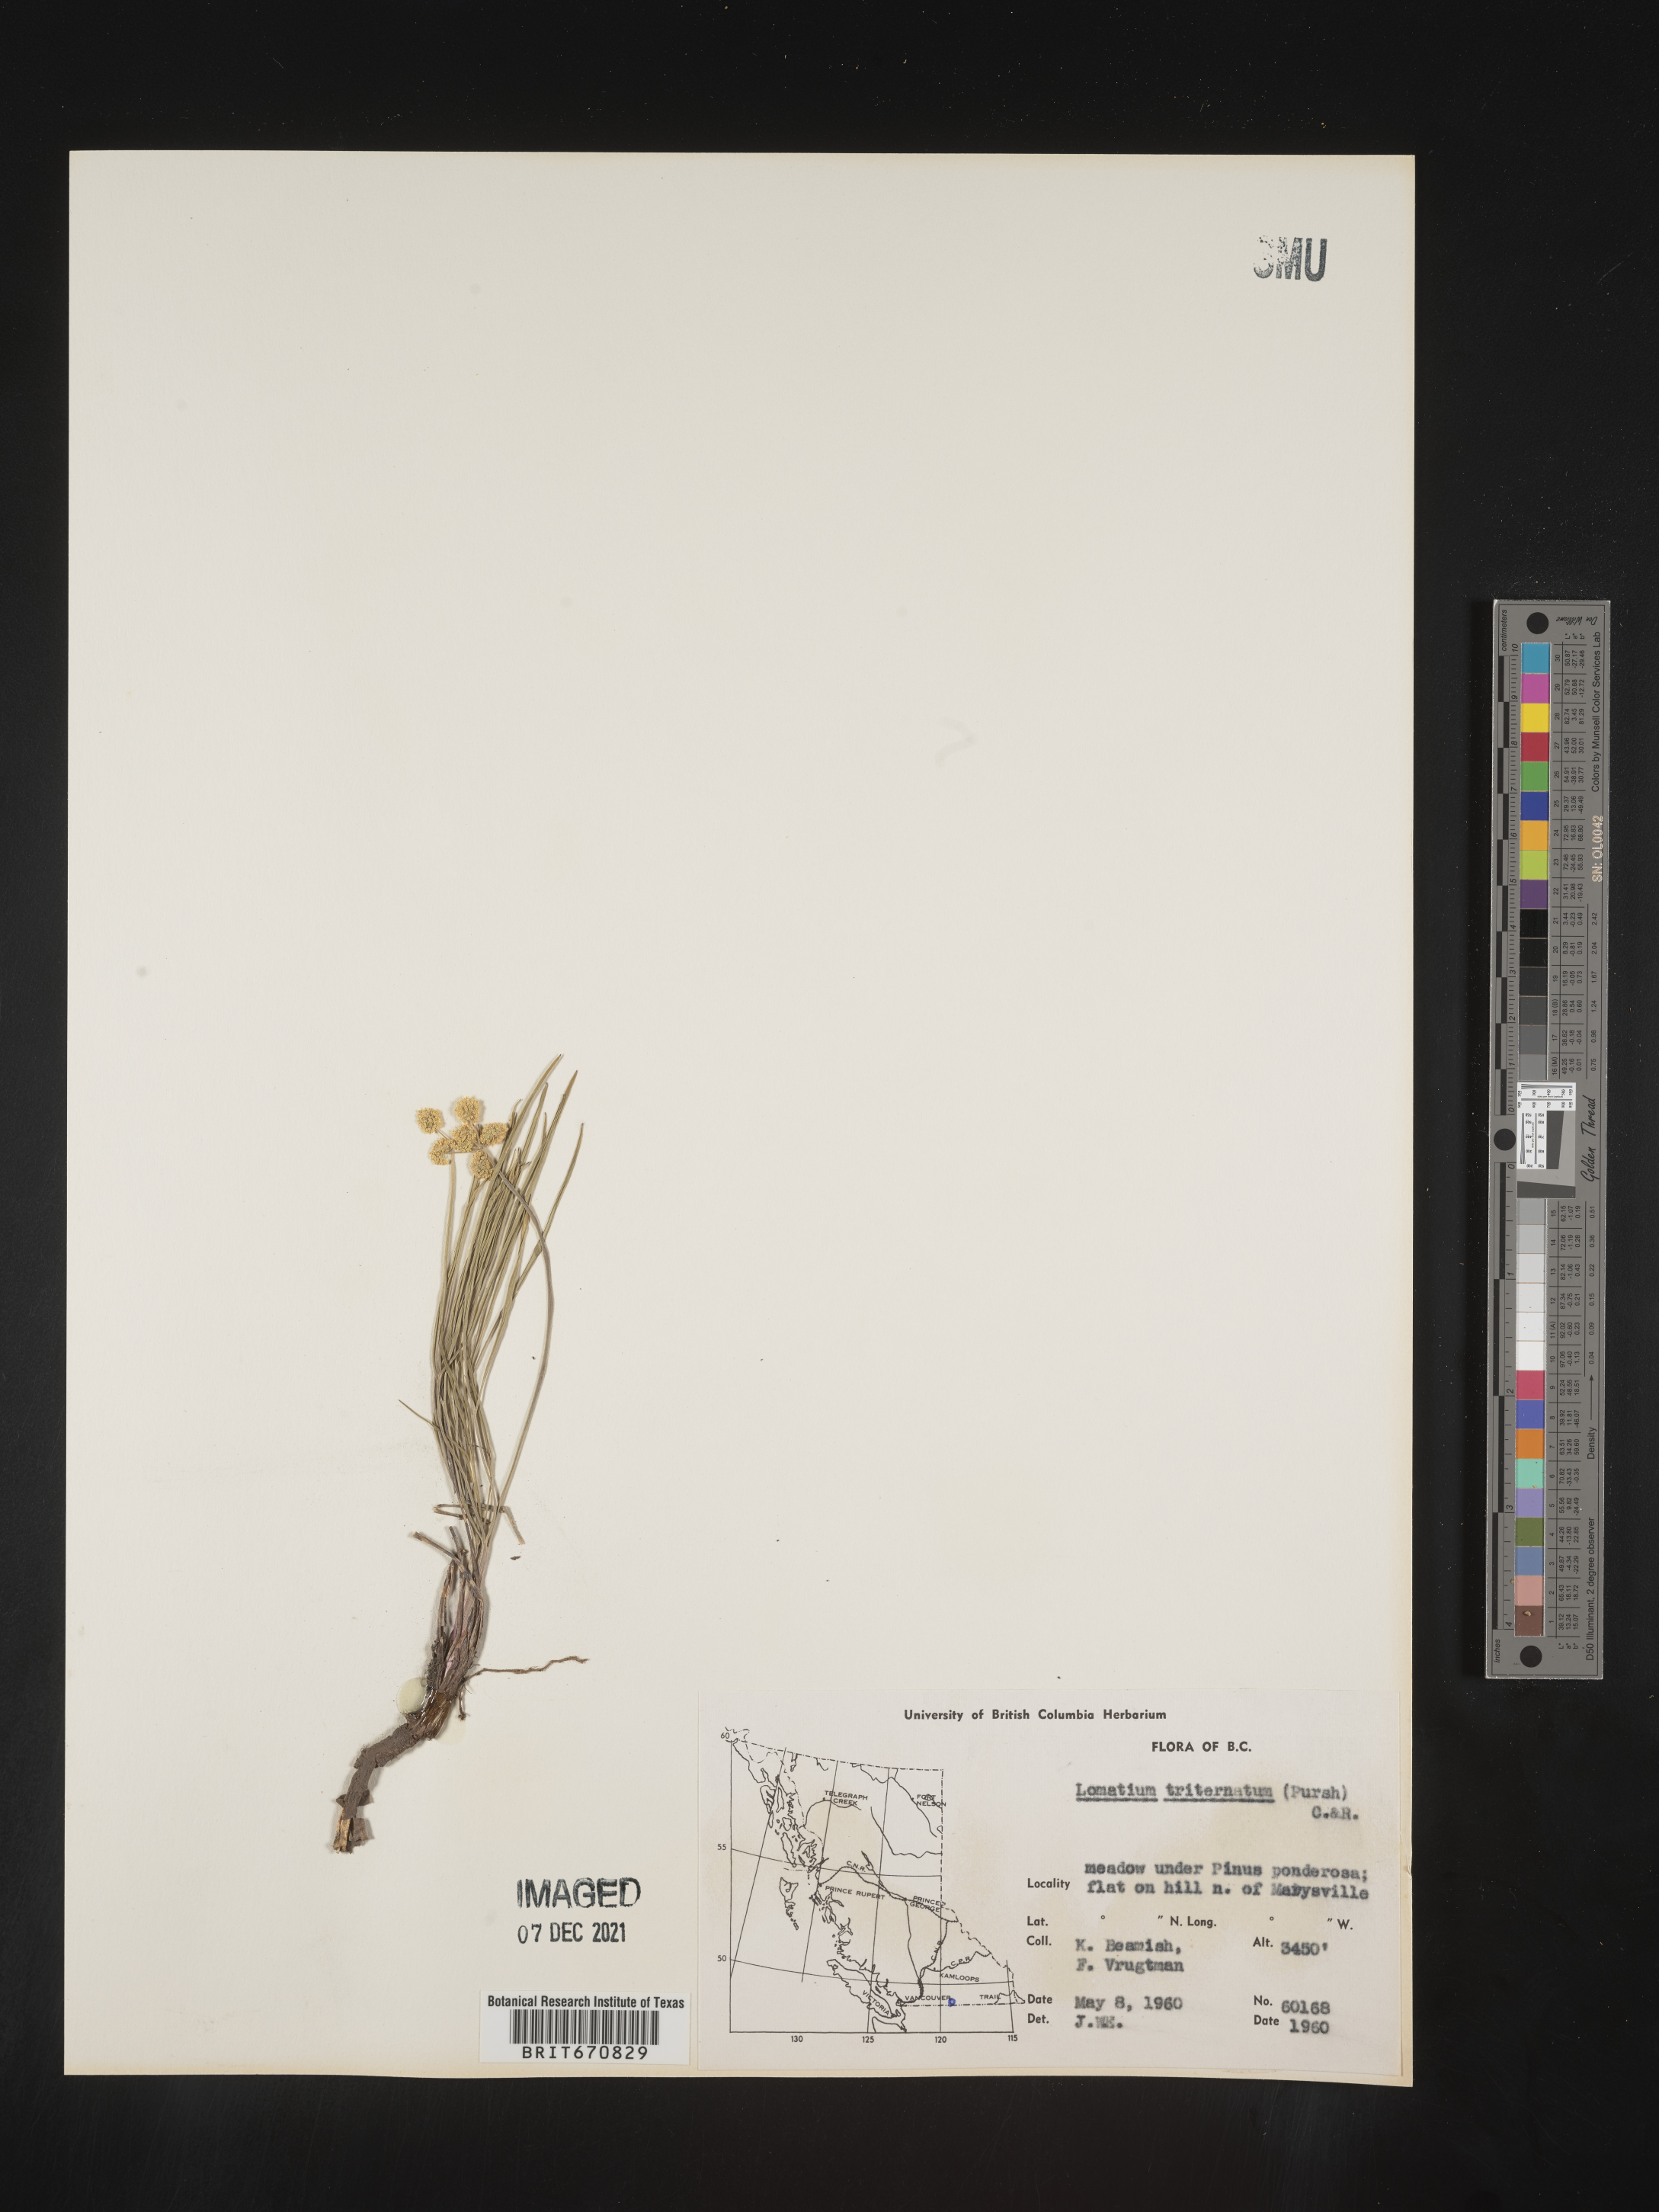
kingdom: Plantae
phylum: Tracheophyta
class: Magnoliopsida
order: Apiales
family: Apiaceae
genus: Lomatium
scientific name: Lomatium triternatum
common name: Ternate lomatium
